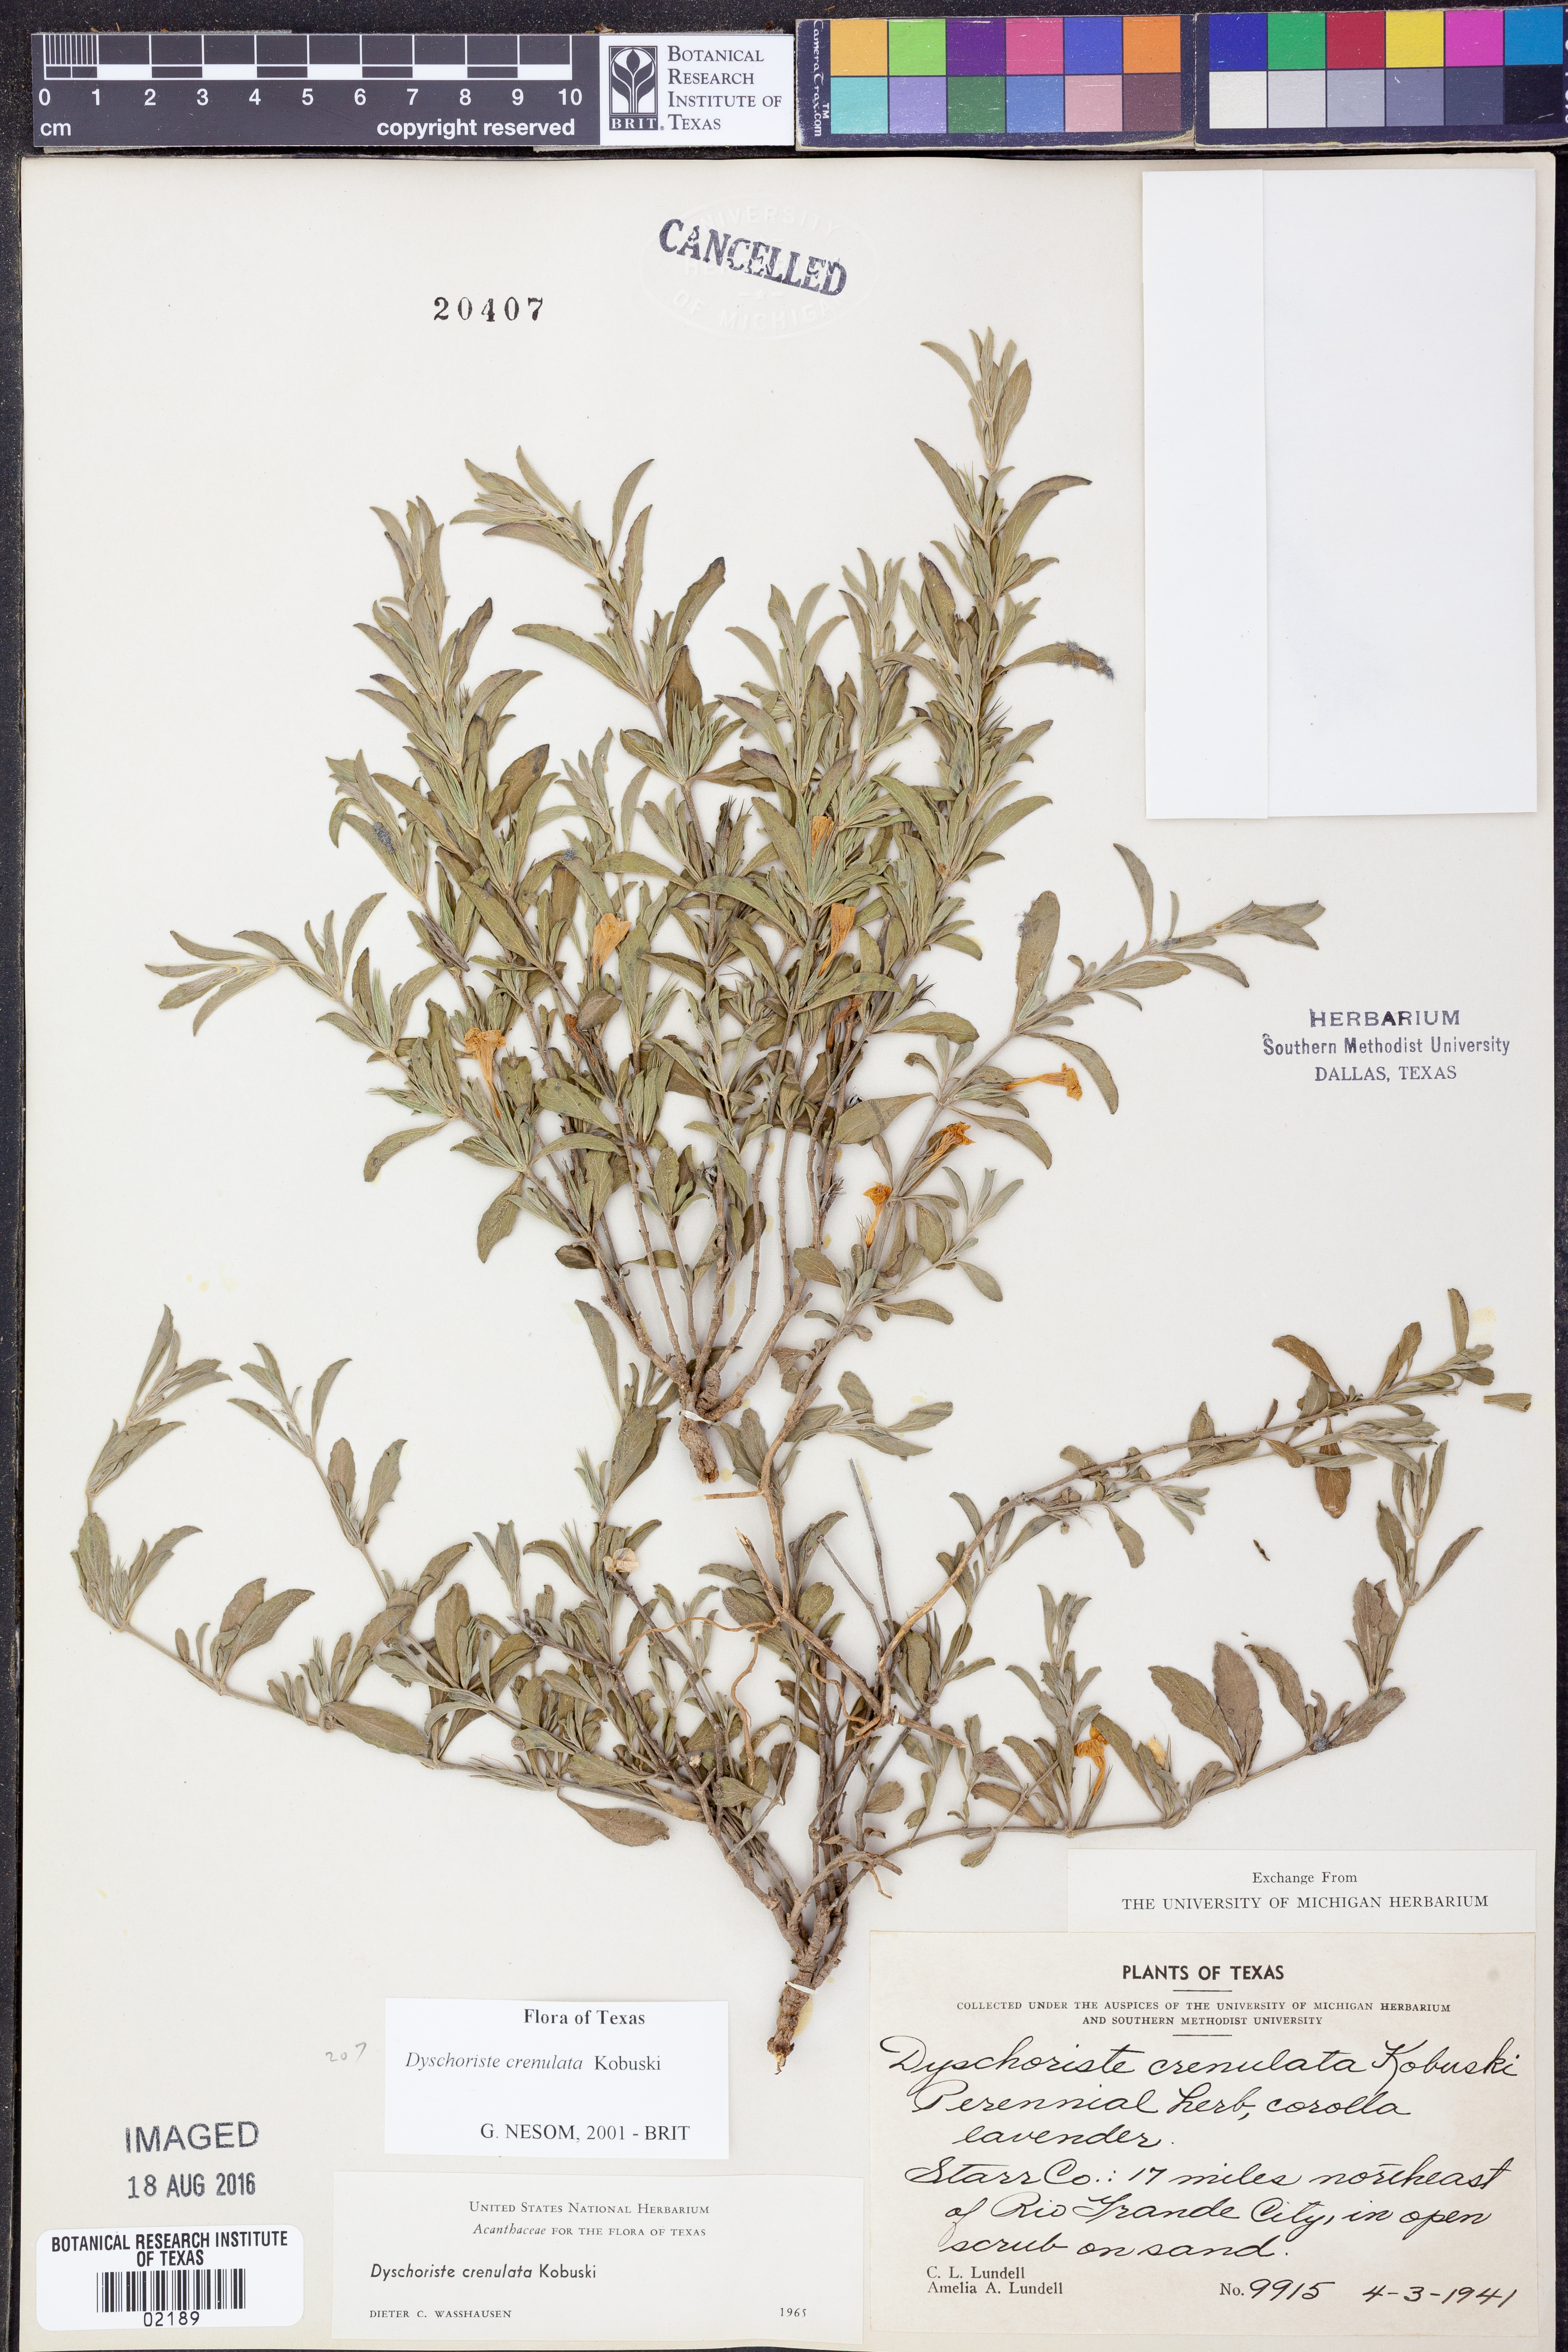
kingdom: Plantae
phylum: Tracheophyta
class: Magnoliopsida
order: Lamiales
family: Acanthaceae
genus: Dyschoriste
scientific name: Dyschoriste crenulata
